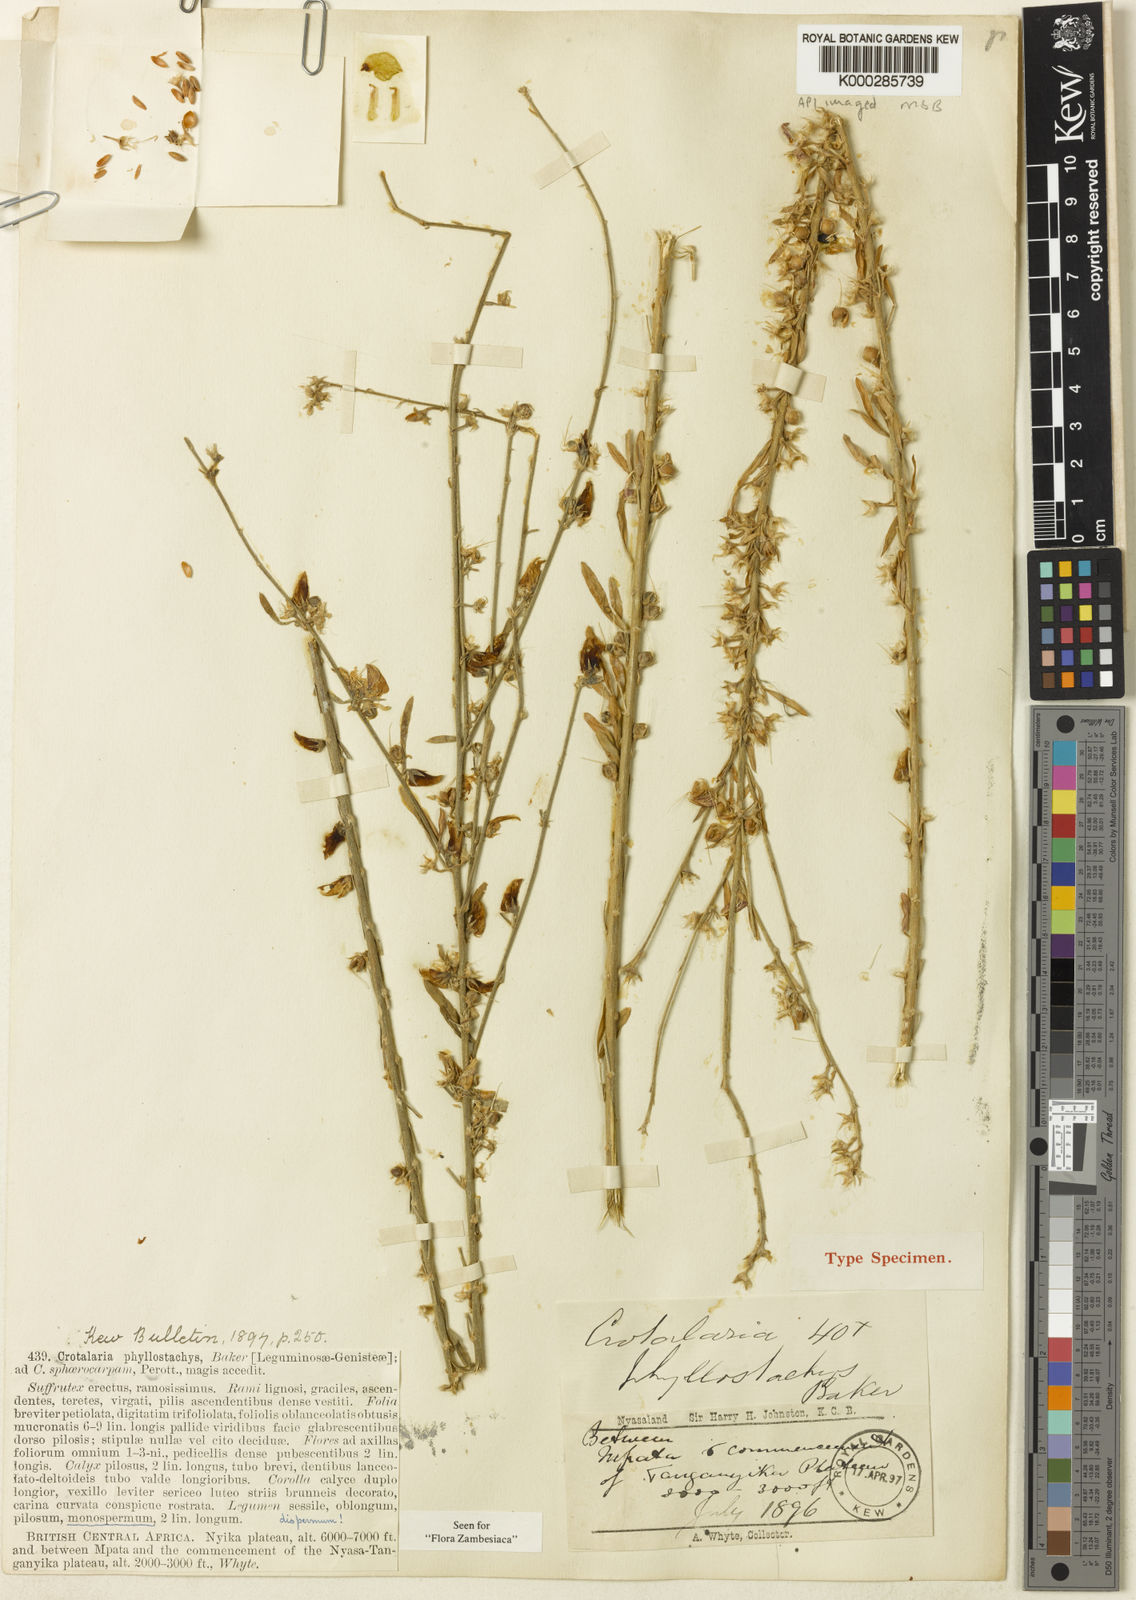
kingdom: Plantae
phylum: Tracheophyta
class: Magnoliopsida
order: Fabales
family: Fabaceae
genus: Crotalaria
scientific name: Crotalaria phyllostachys
